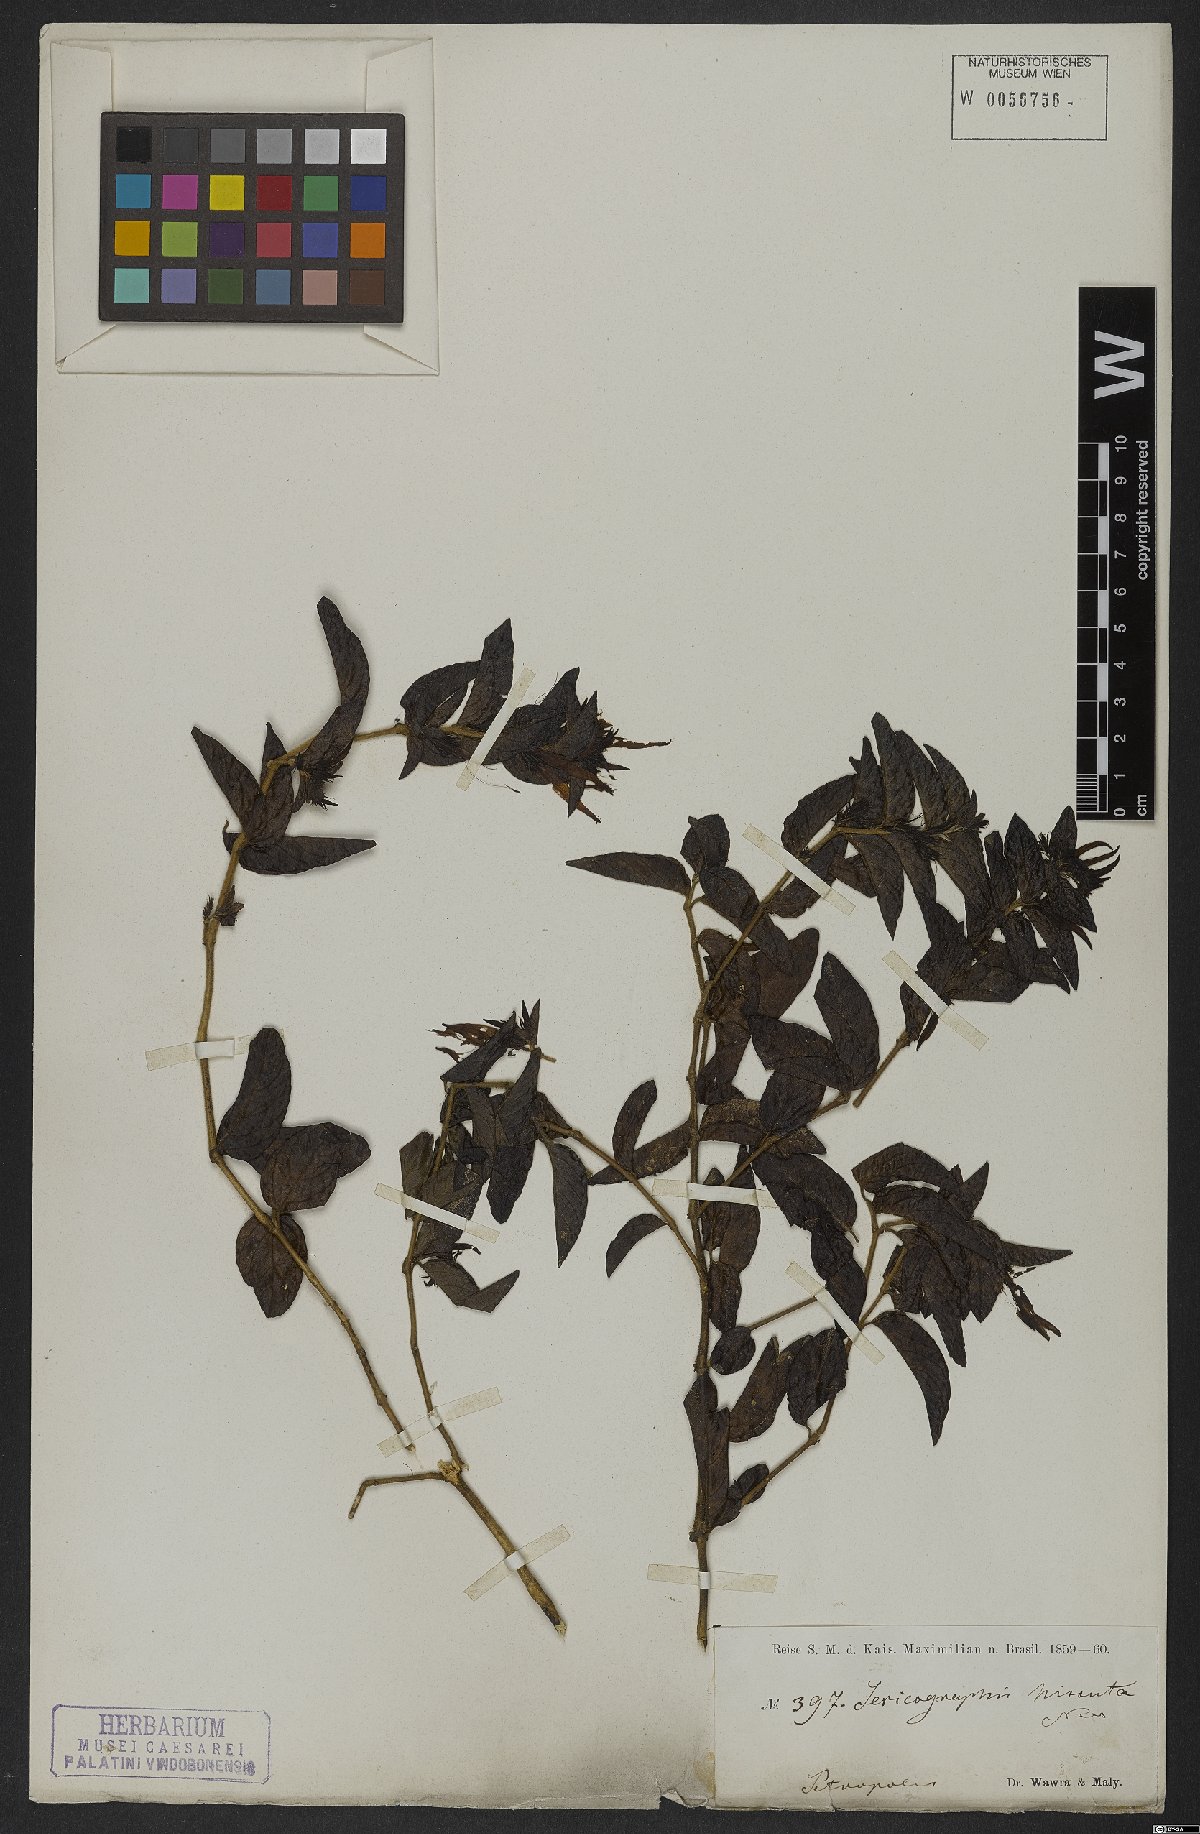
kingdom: Plantae
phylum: Tracheophyta
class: Magnoliopsida
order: Gentianales
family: Rubiaceae
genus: Gonzalagunia
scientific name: Gonzalagunia hirsuta
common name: Mata de mariposa
